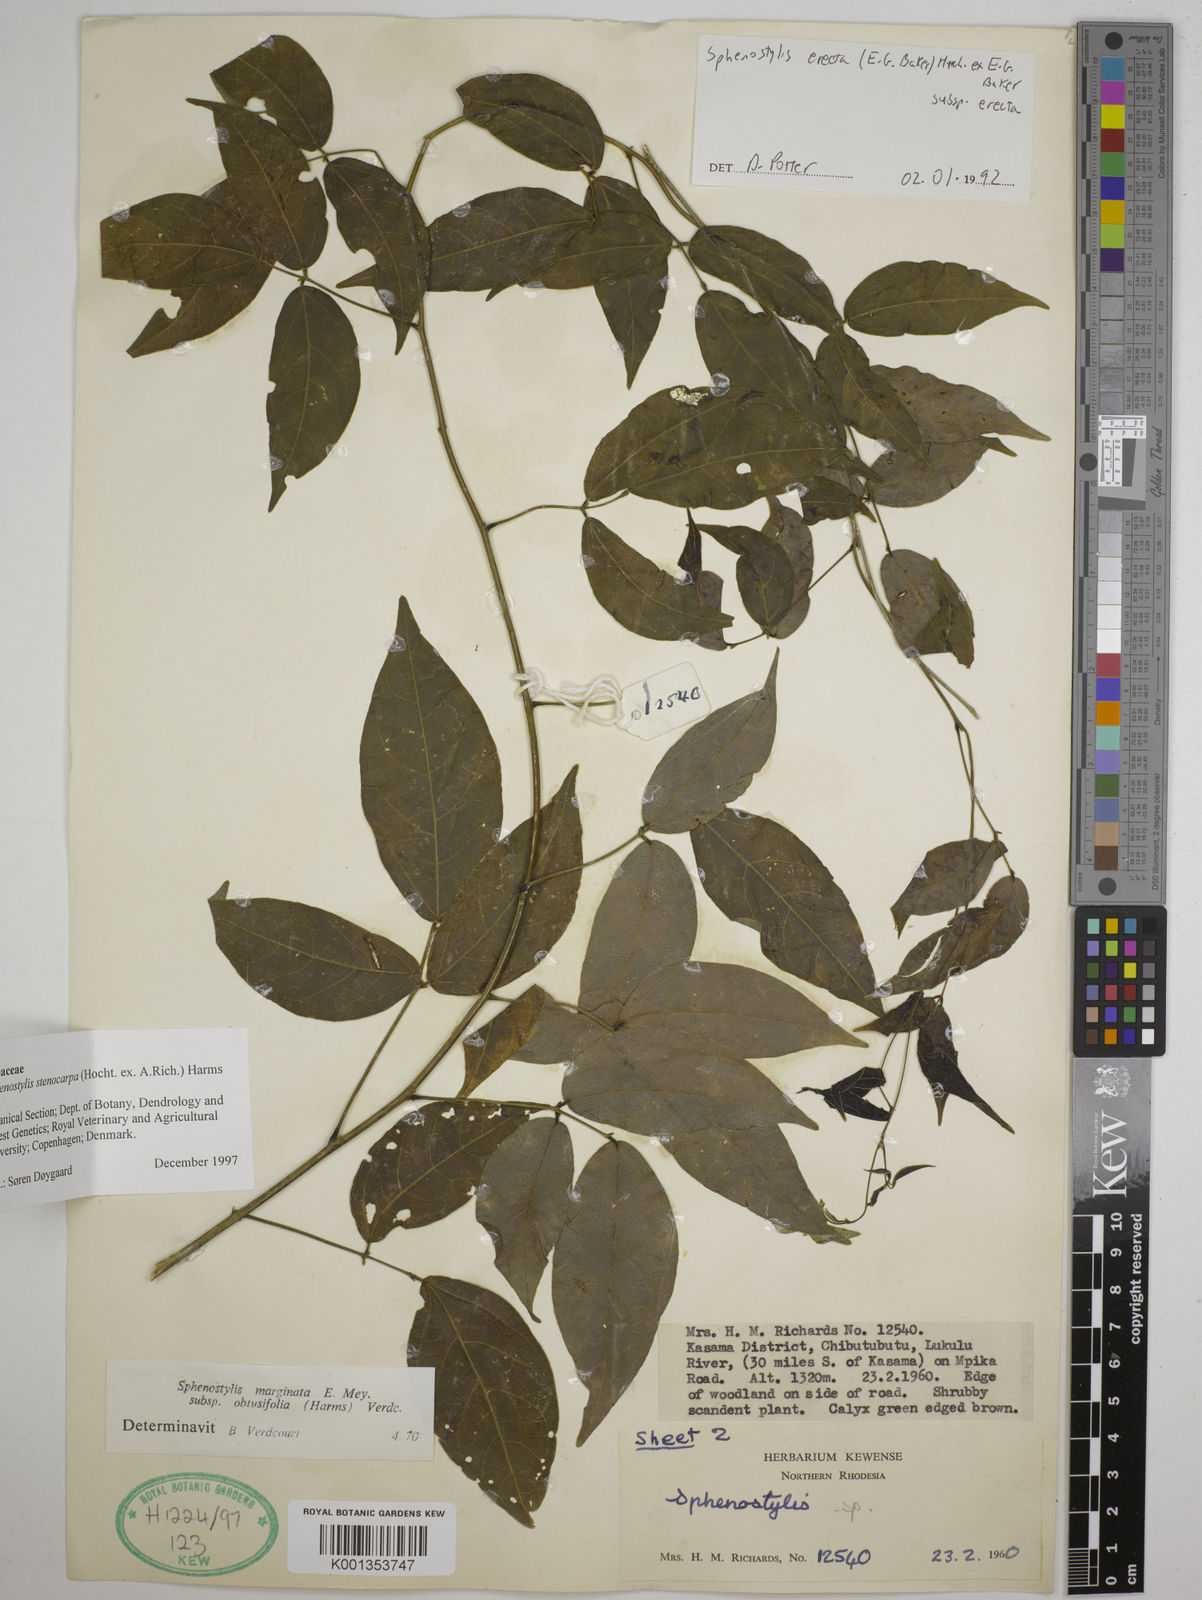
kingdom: Plantae
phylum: Tracheophyta
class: Magnoliopsida
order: Fabales
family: Fabaceae
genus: Sphenostylis
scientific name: Sphenostylis stenocarpa
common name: Yam-pea
